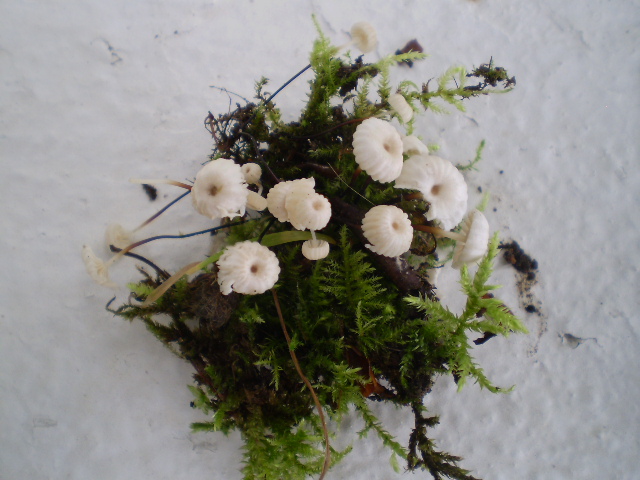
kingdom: Fungi
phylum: Basidiomycota
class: Agaricomycetes
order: Agaricales
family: Marasmiaceae
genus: Marasmius
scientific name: Marasmius rotula
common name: hjul-bruskhat
